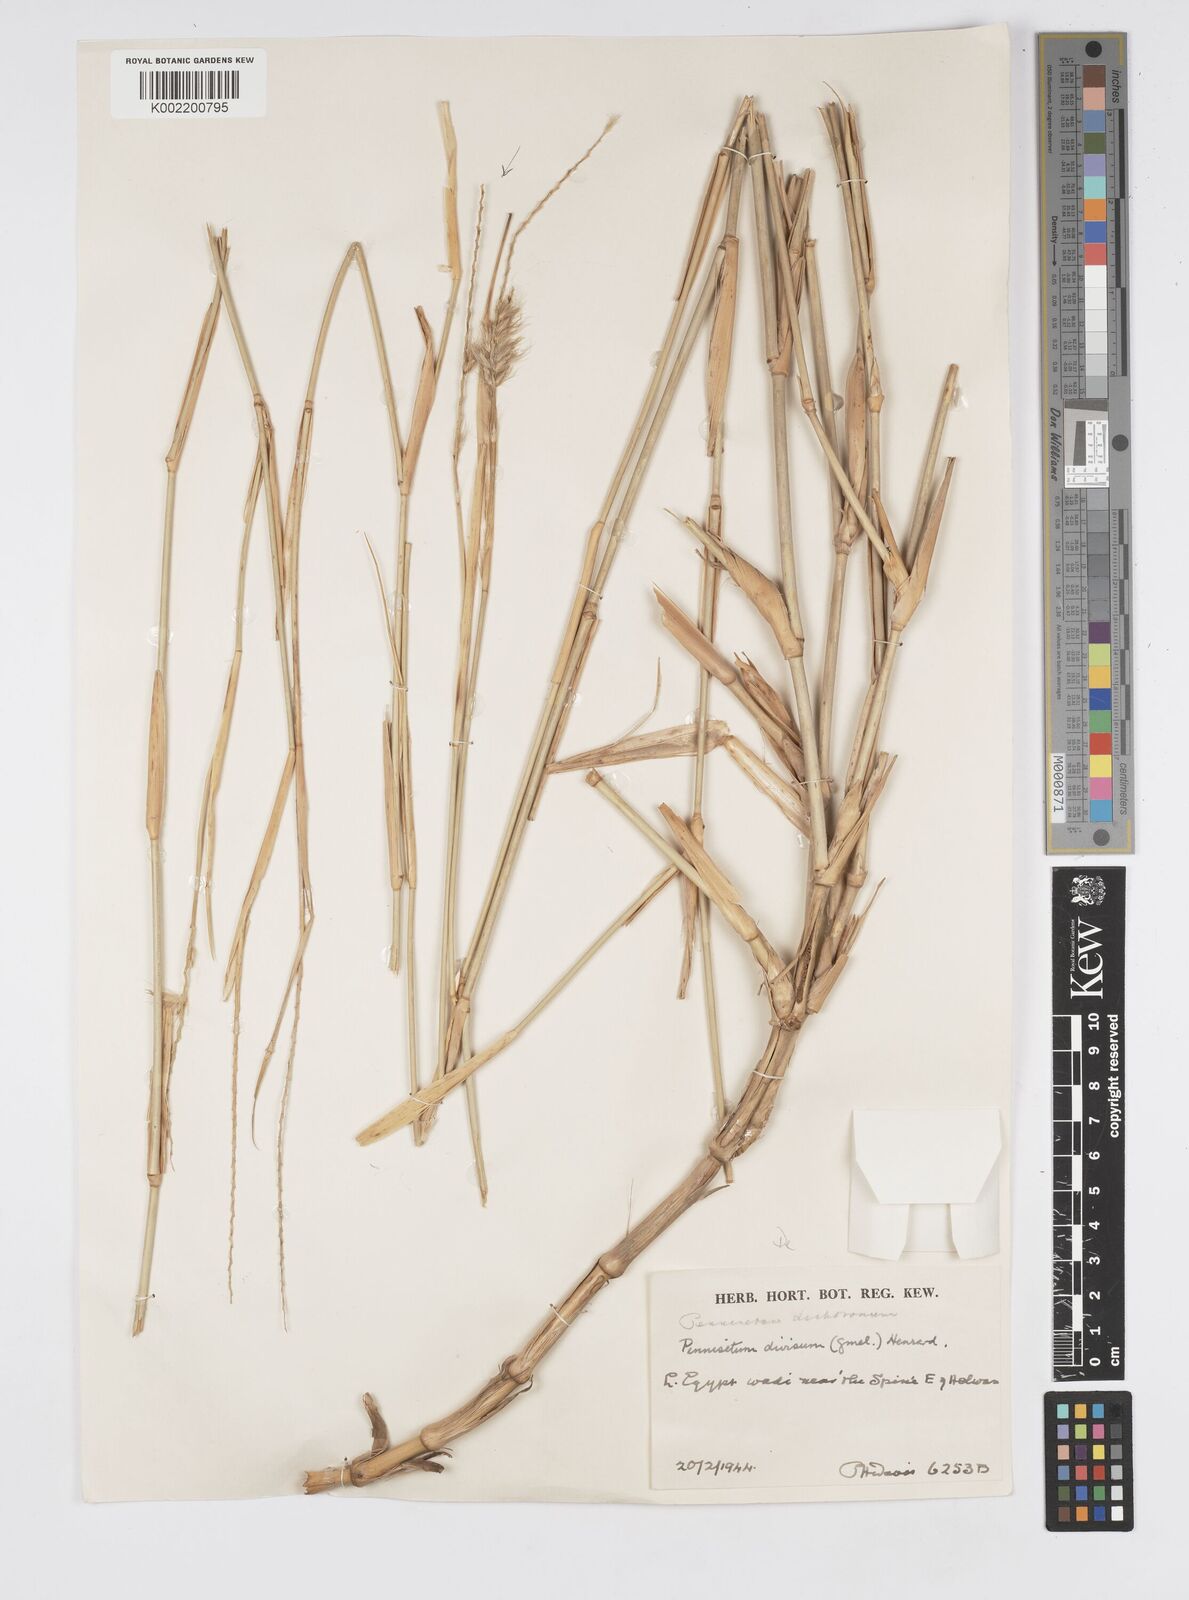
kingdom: Plantae
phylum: Tracheophyta
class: Liliopsida
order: Poales
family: Poaceae
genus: Cenchrus
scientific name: Cenchrus divisus
